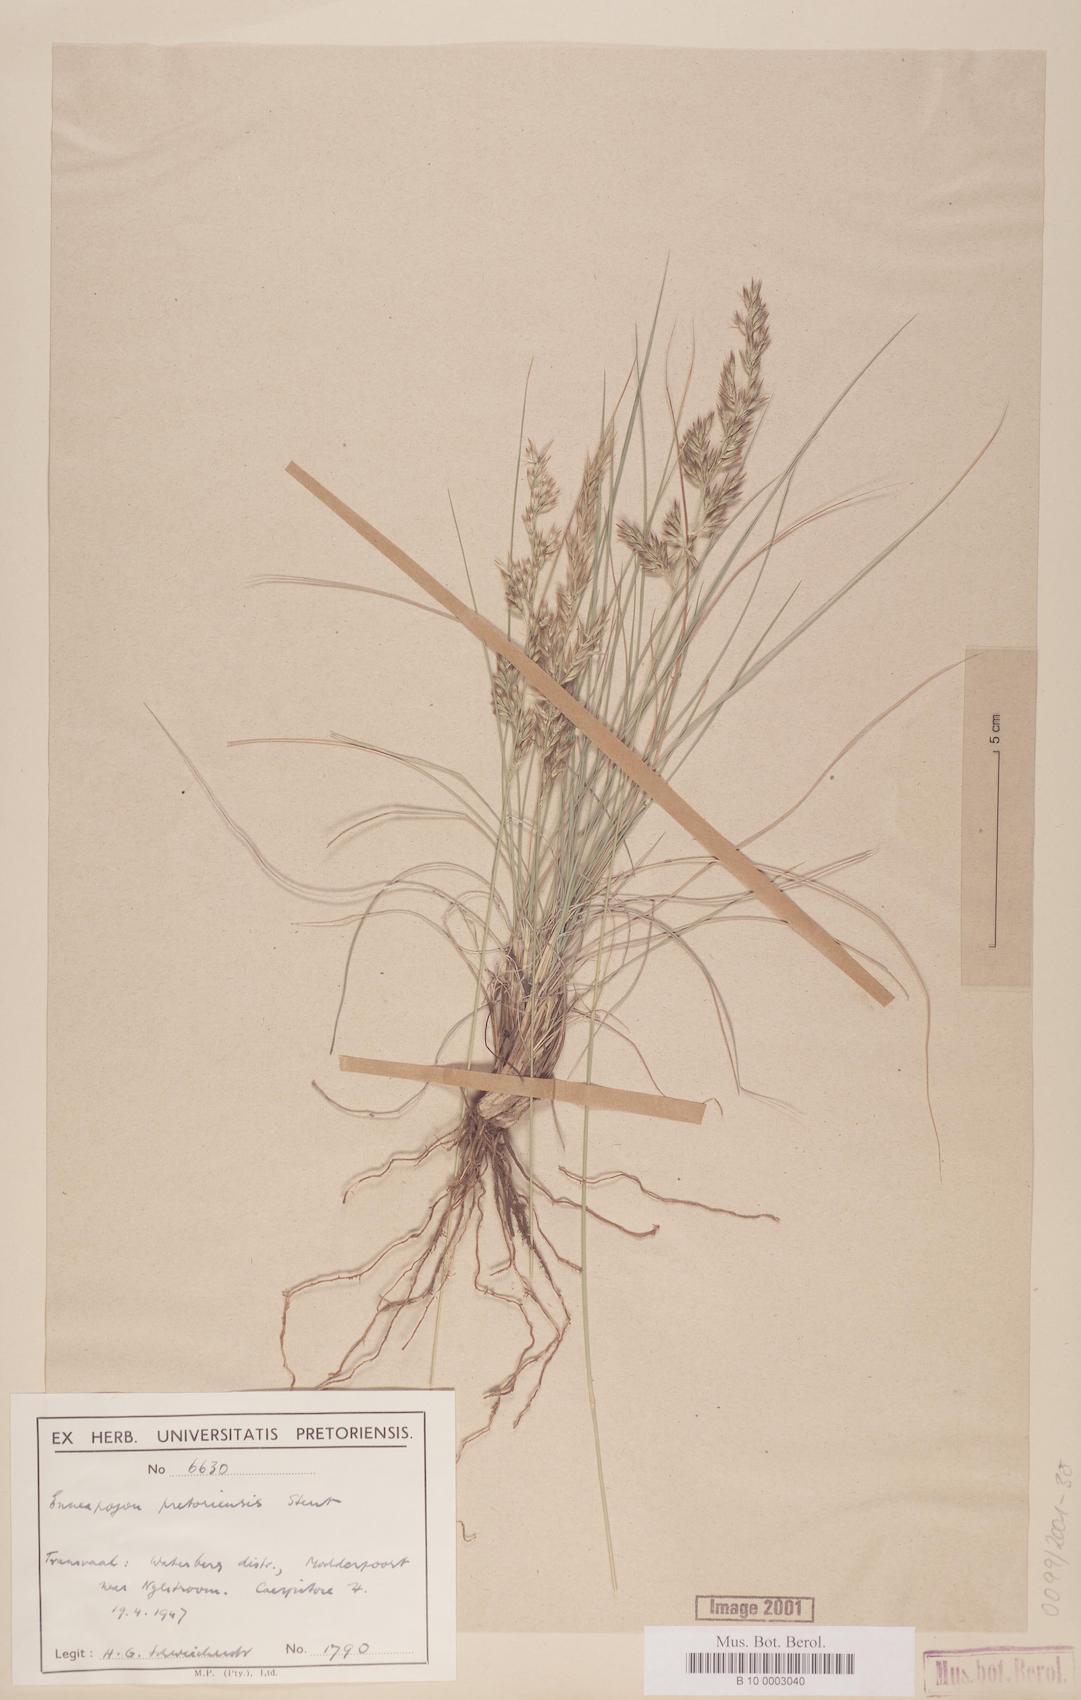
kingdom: Plantae
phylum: Tracheophyta
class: Liliopsida
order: Poales
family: Poaceae
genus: Enneapogon
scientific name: Enneapogon pretoriensis
